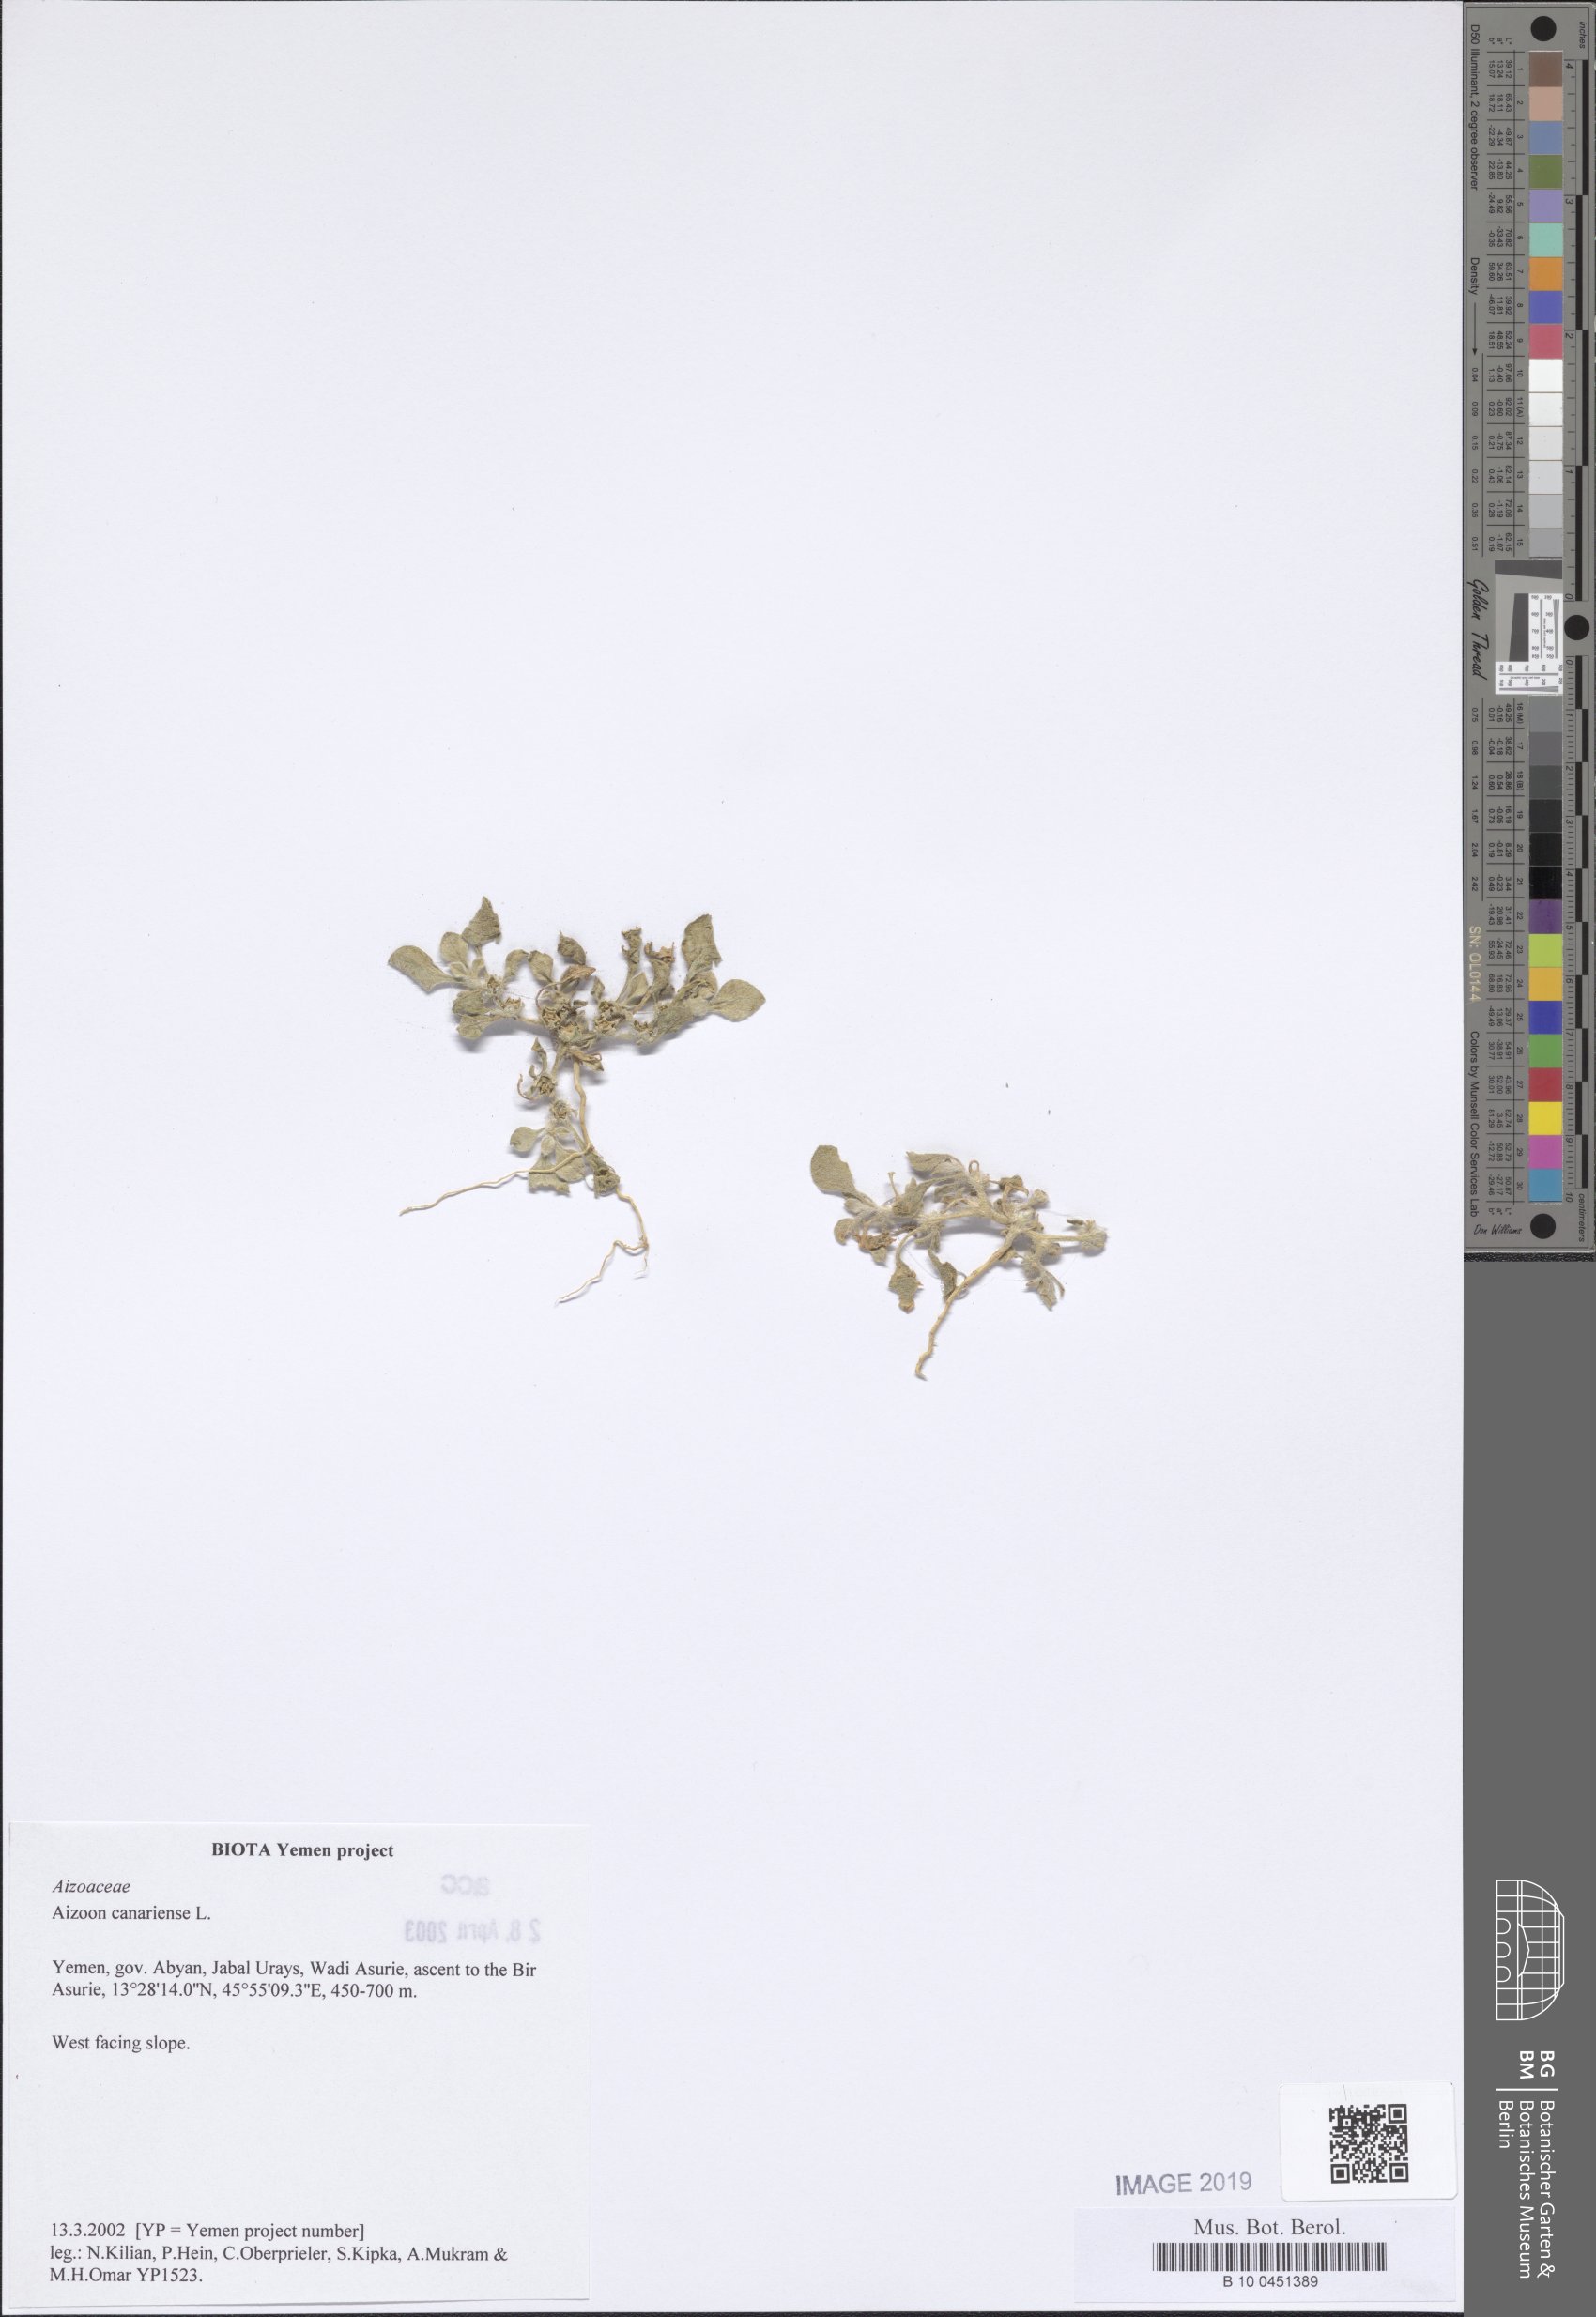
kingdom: Plantae
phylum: Tracheophyta
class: Magnoliopsida
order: Caryophyllales
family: Aizoaceae
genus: Aizoon
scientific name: Aizoon canariense
